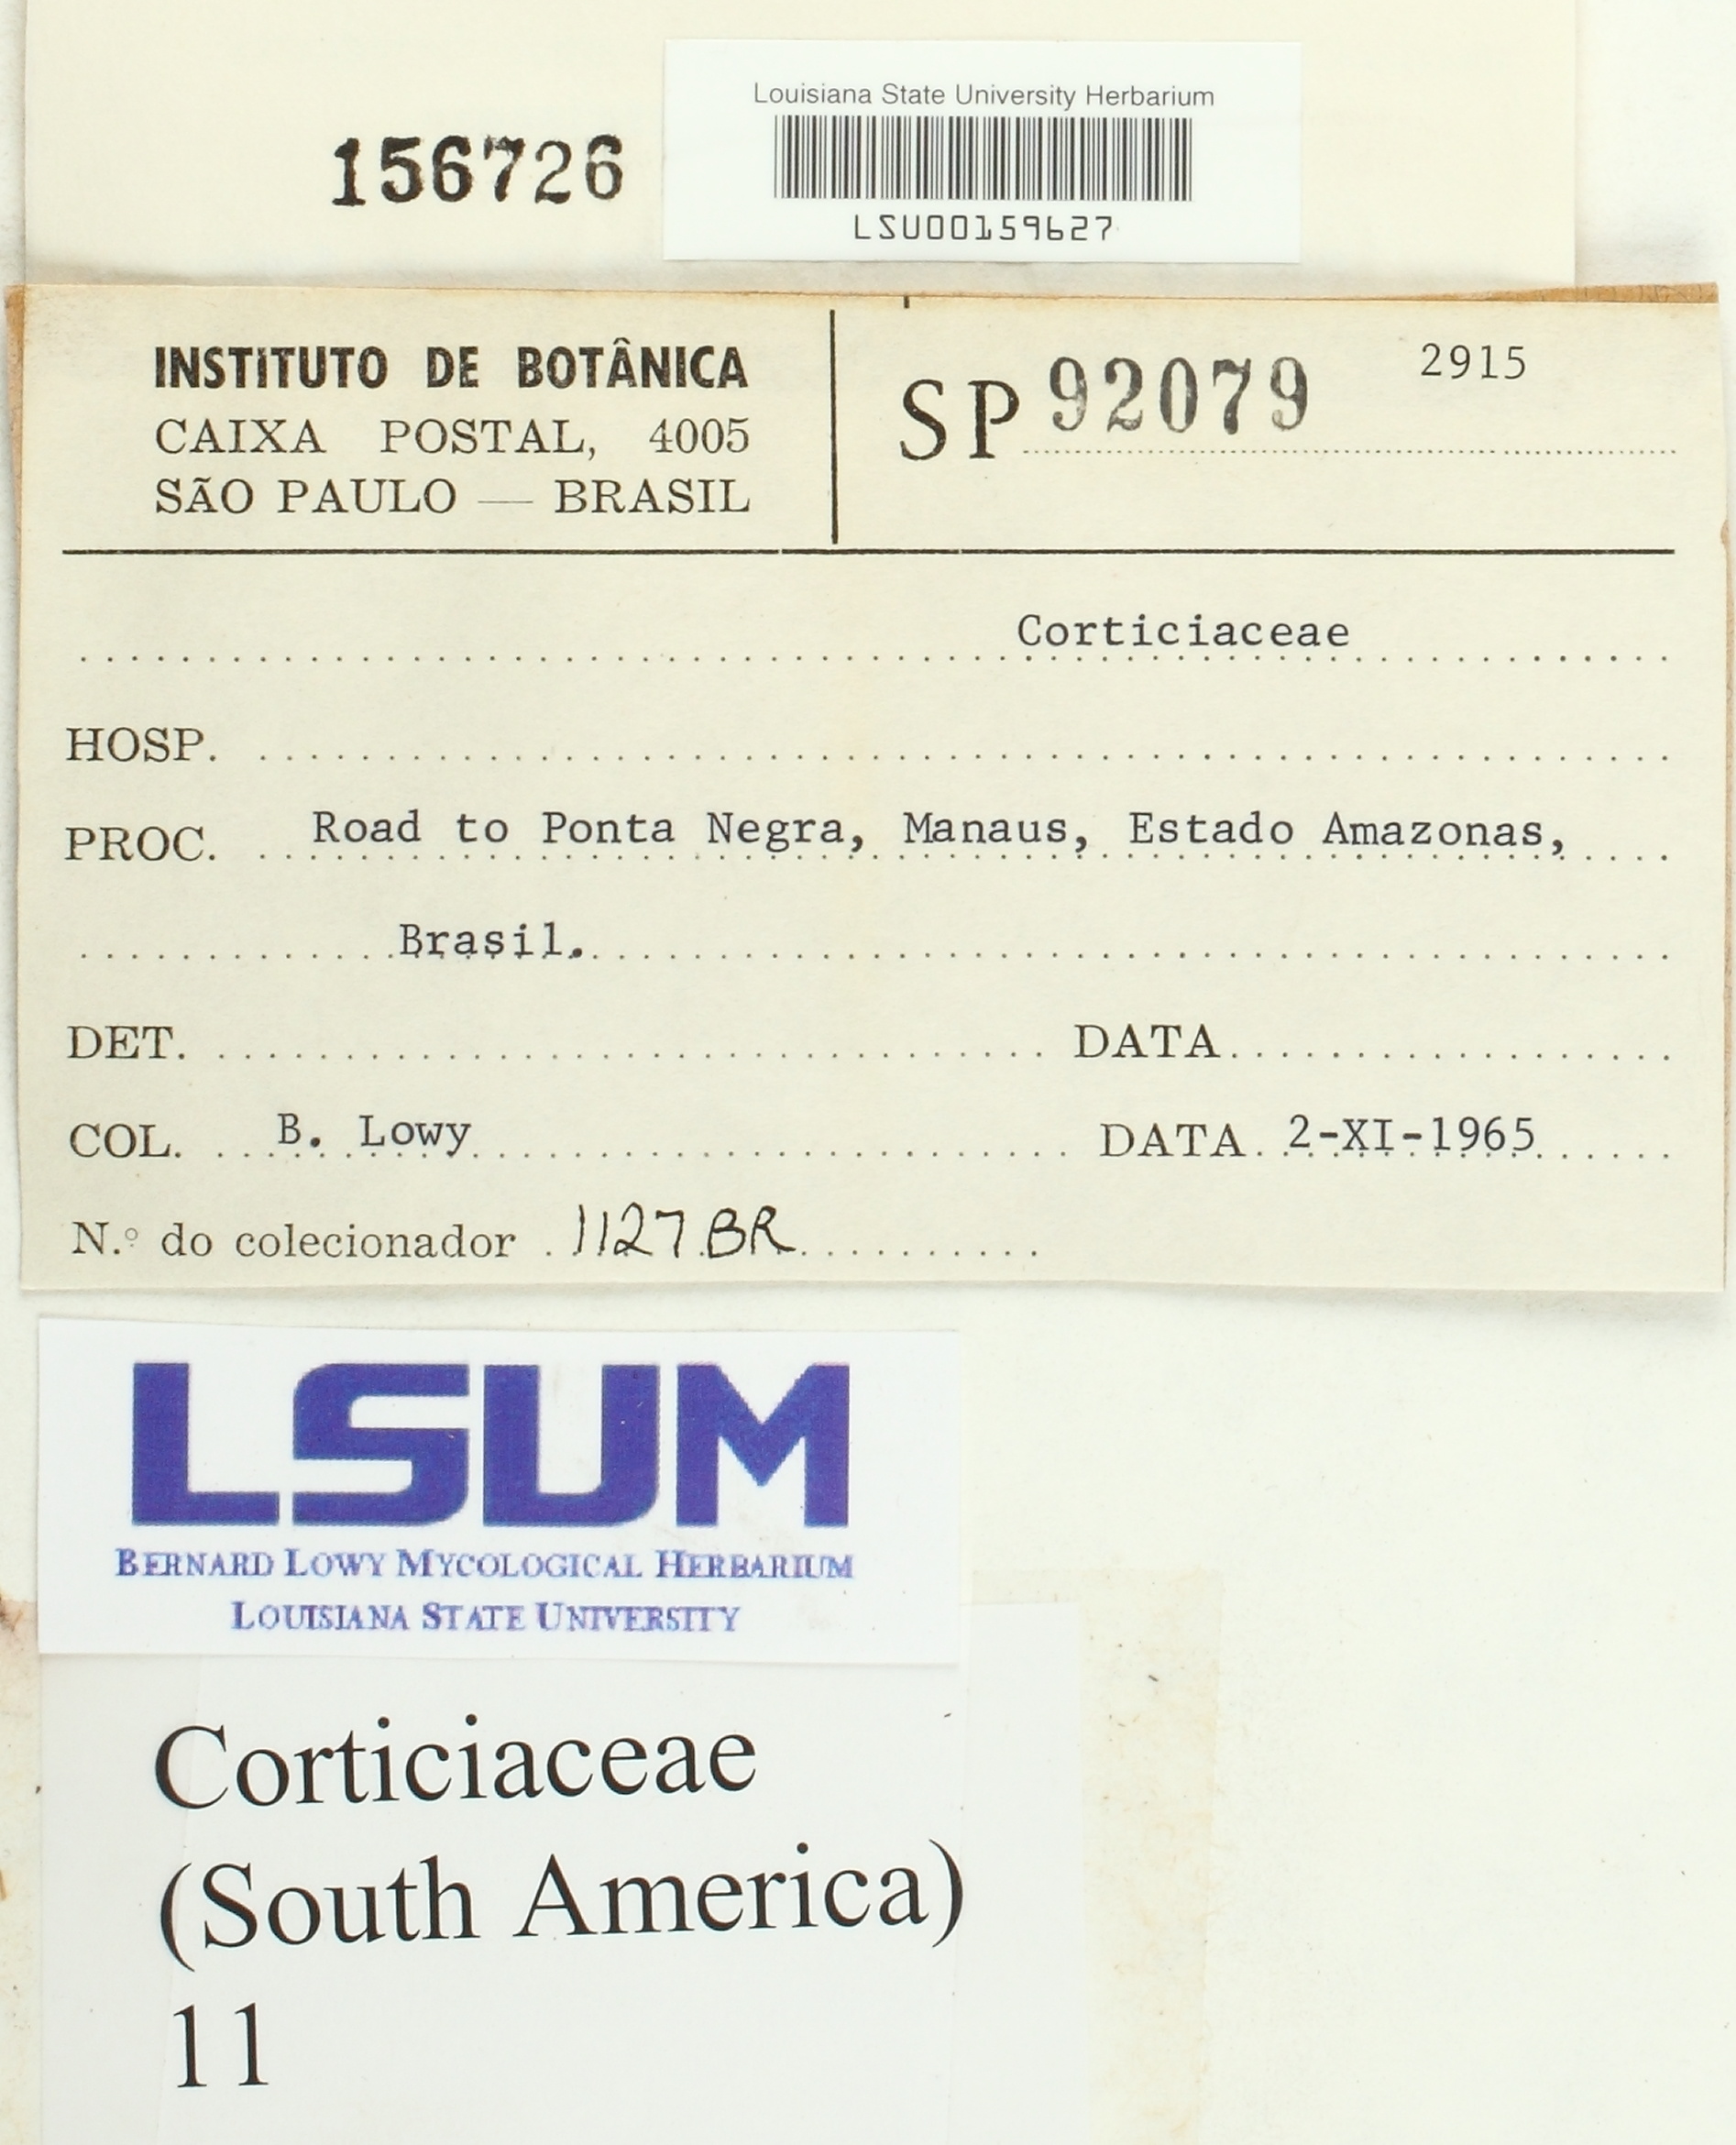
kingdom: Fungi
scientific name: Fungi
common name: Fungi
